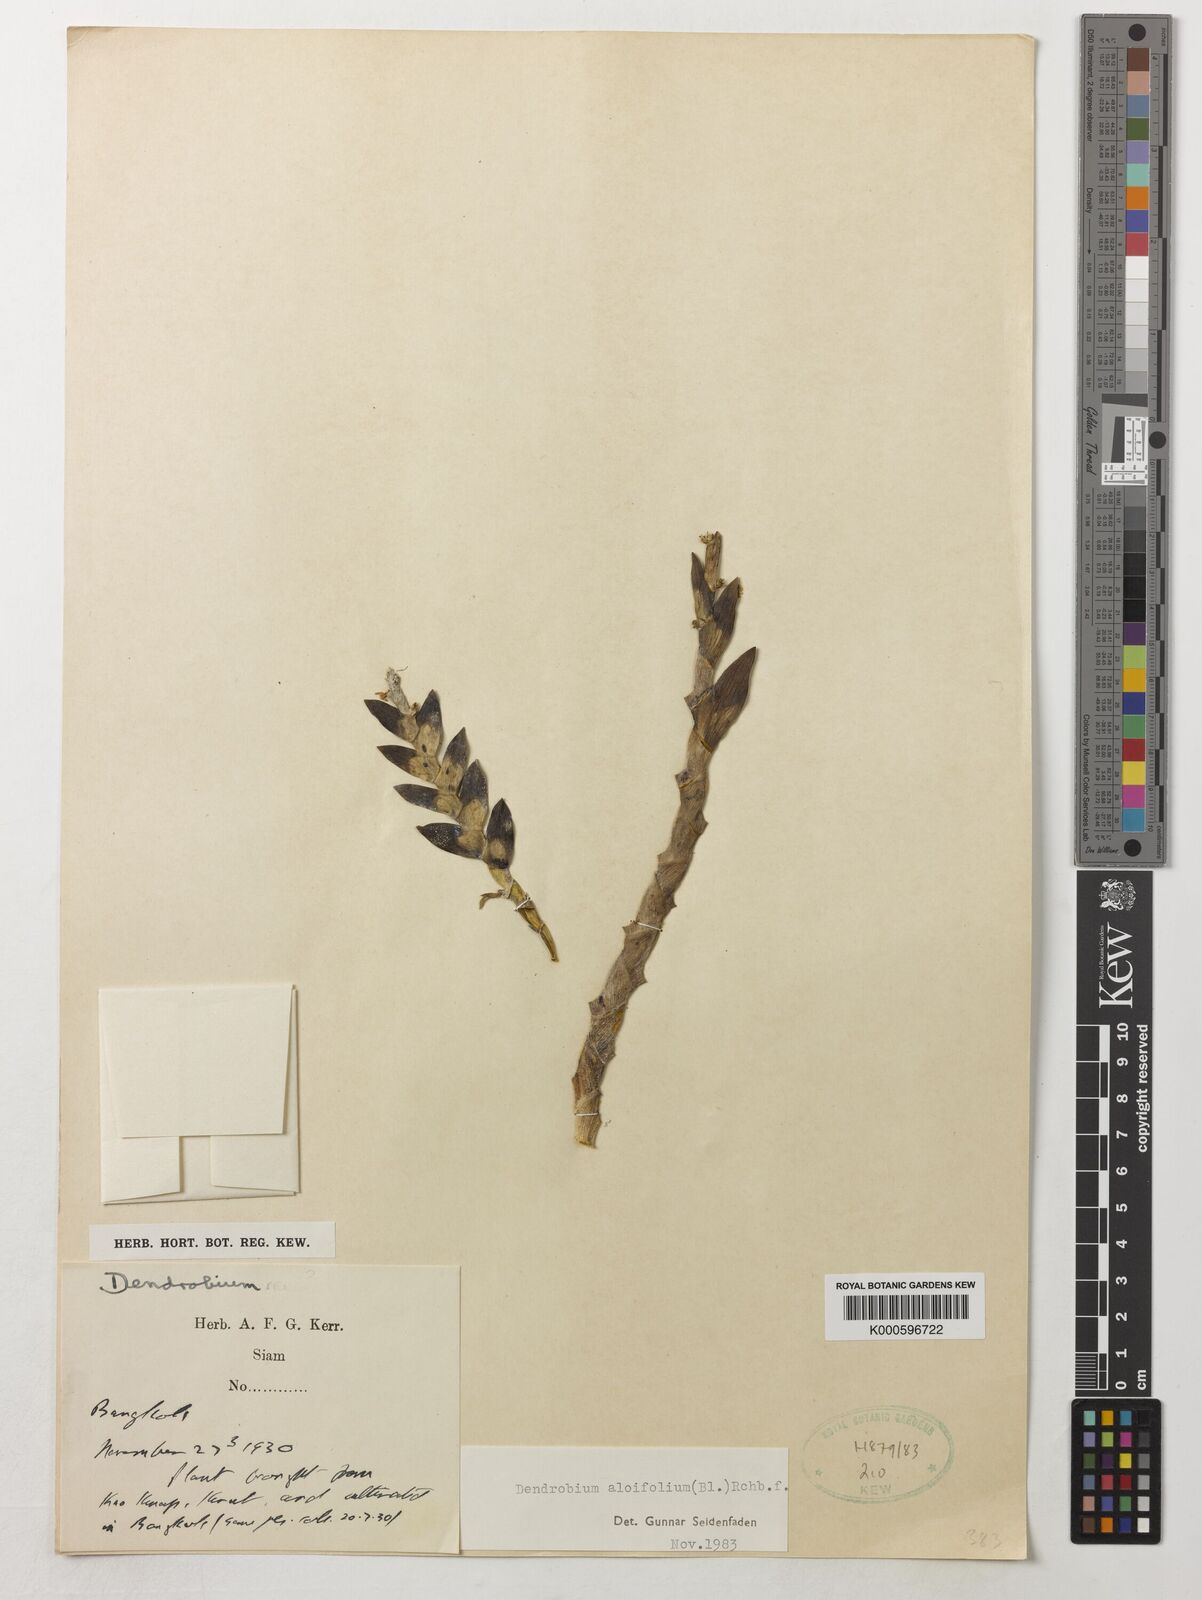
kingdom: Plantae
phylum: Tracheophyta
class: Liliopsida
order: Asparagales
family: Orchidaceae
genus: Dendrobium
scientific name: Dendrobium aloifolium
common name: Aloe-like dendrobium
